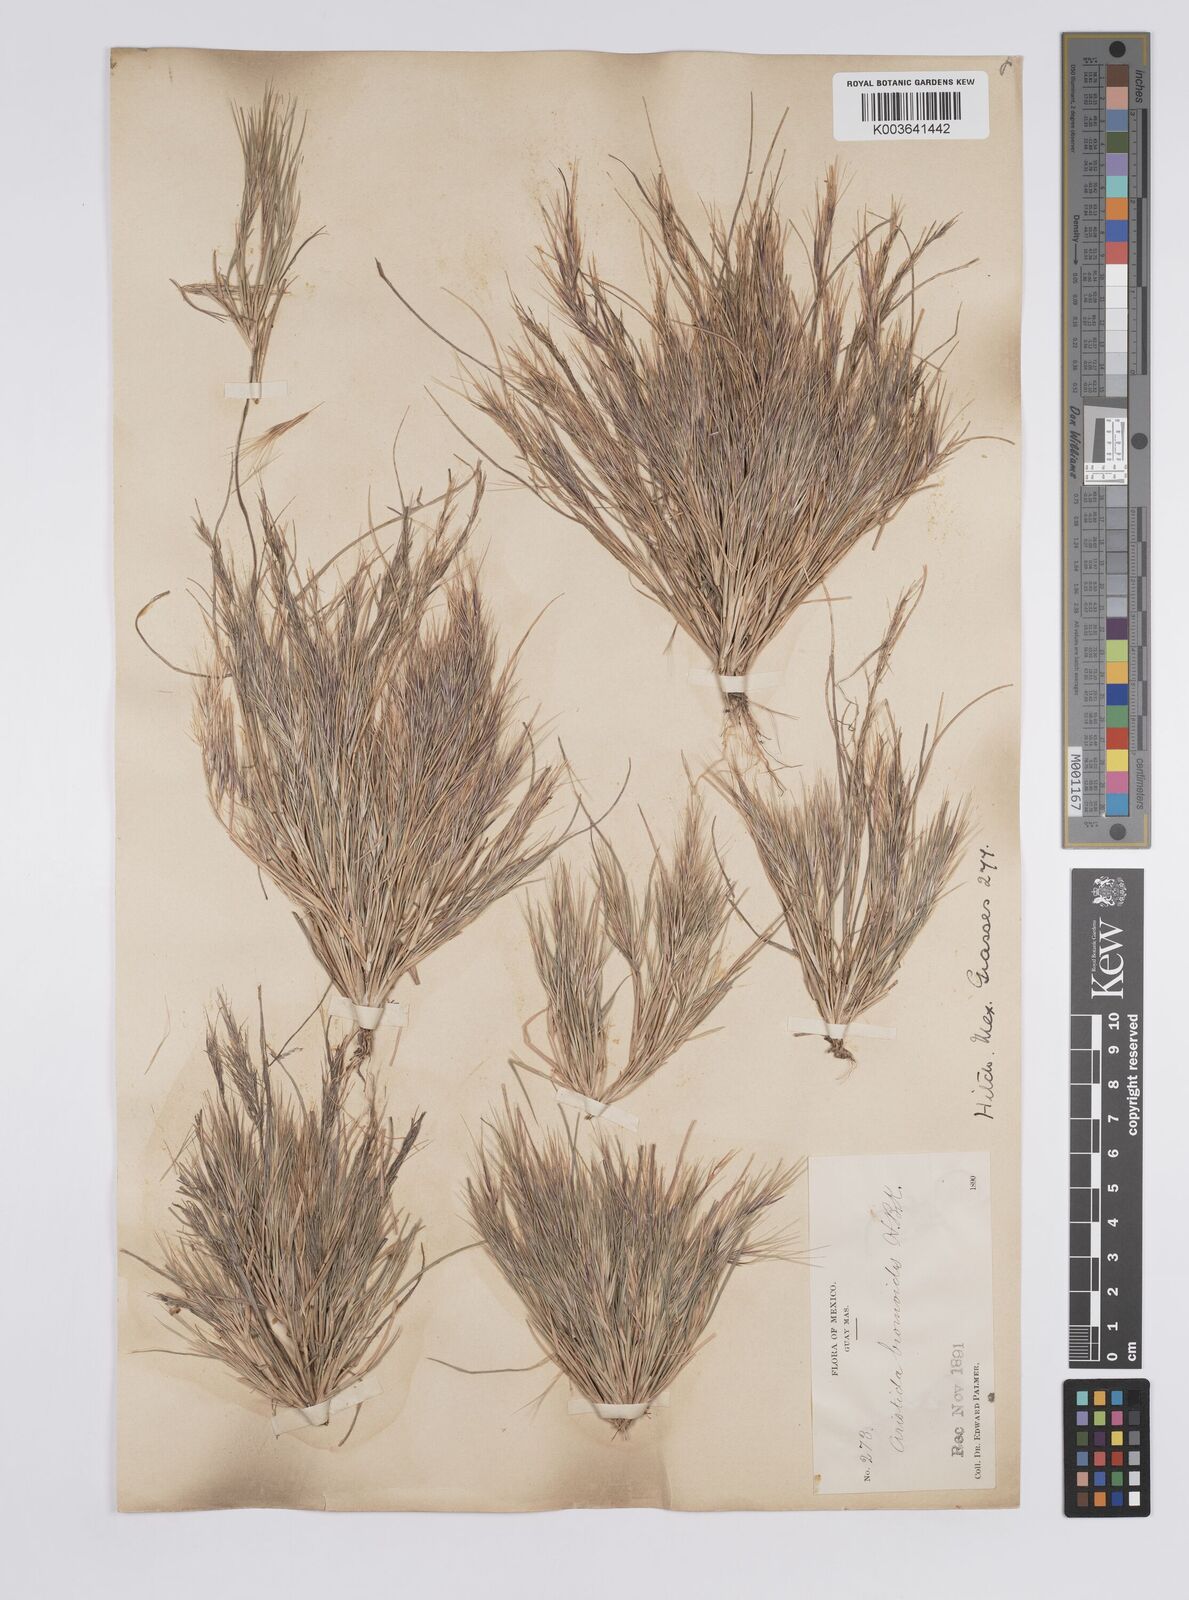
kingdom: Plantae
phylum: Tracheophyta
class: Liliopsida
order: Poales
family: Poaceae
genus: Aristida
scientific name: Aristida adscensionis
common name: Sixweeks threeawn
